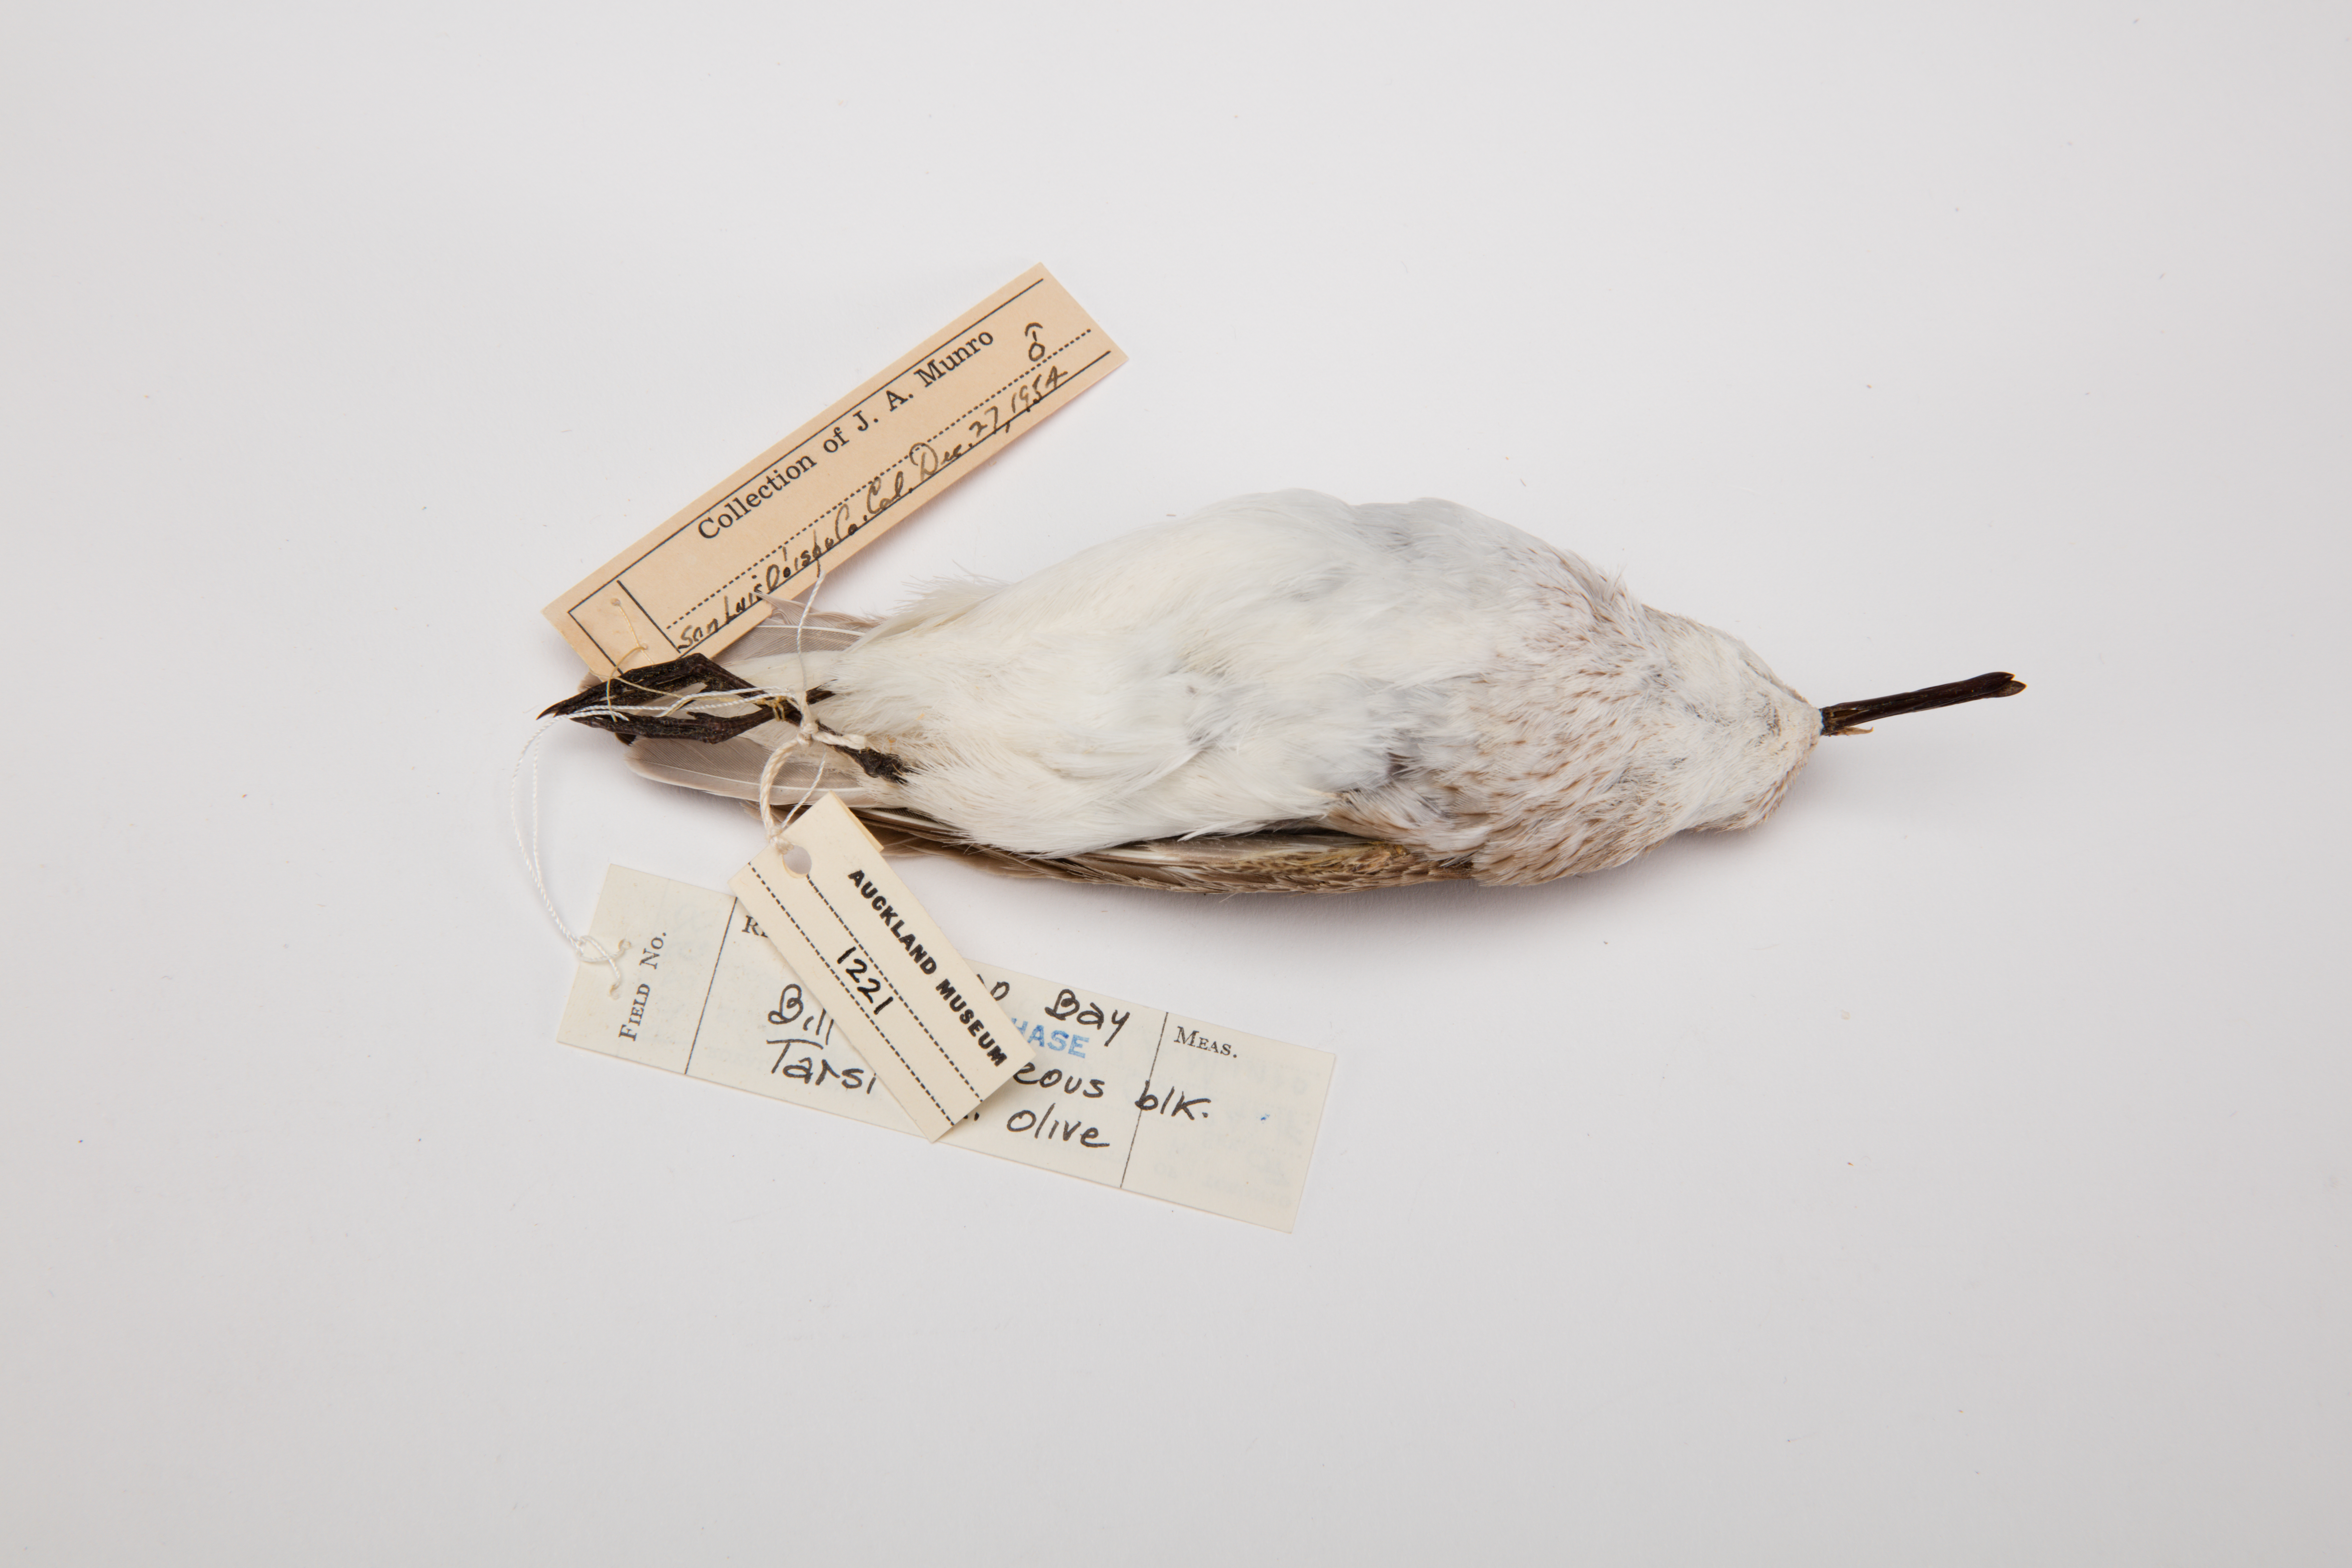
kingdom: Animalia
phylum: Chordata
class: Aves
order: Charadriiformes
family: Scolopacidae
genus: Calidris
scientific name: Calidris mauri
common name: Western sandpiper
